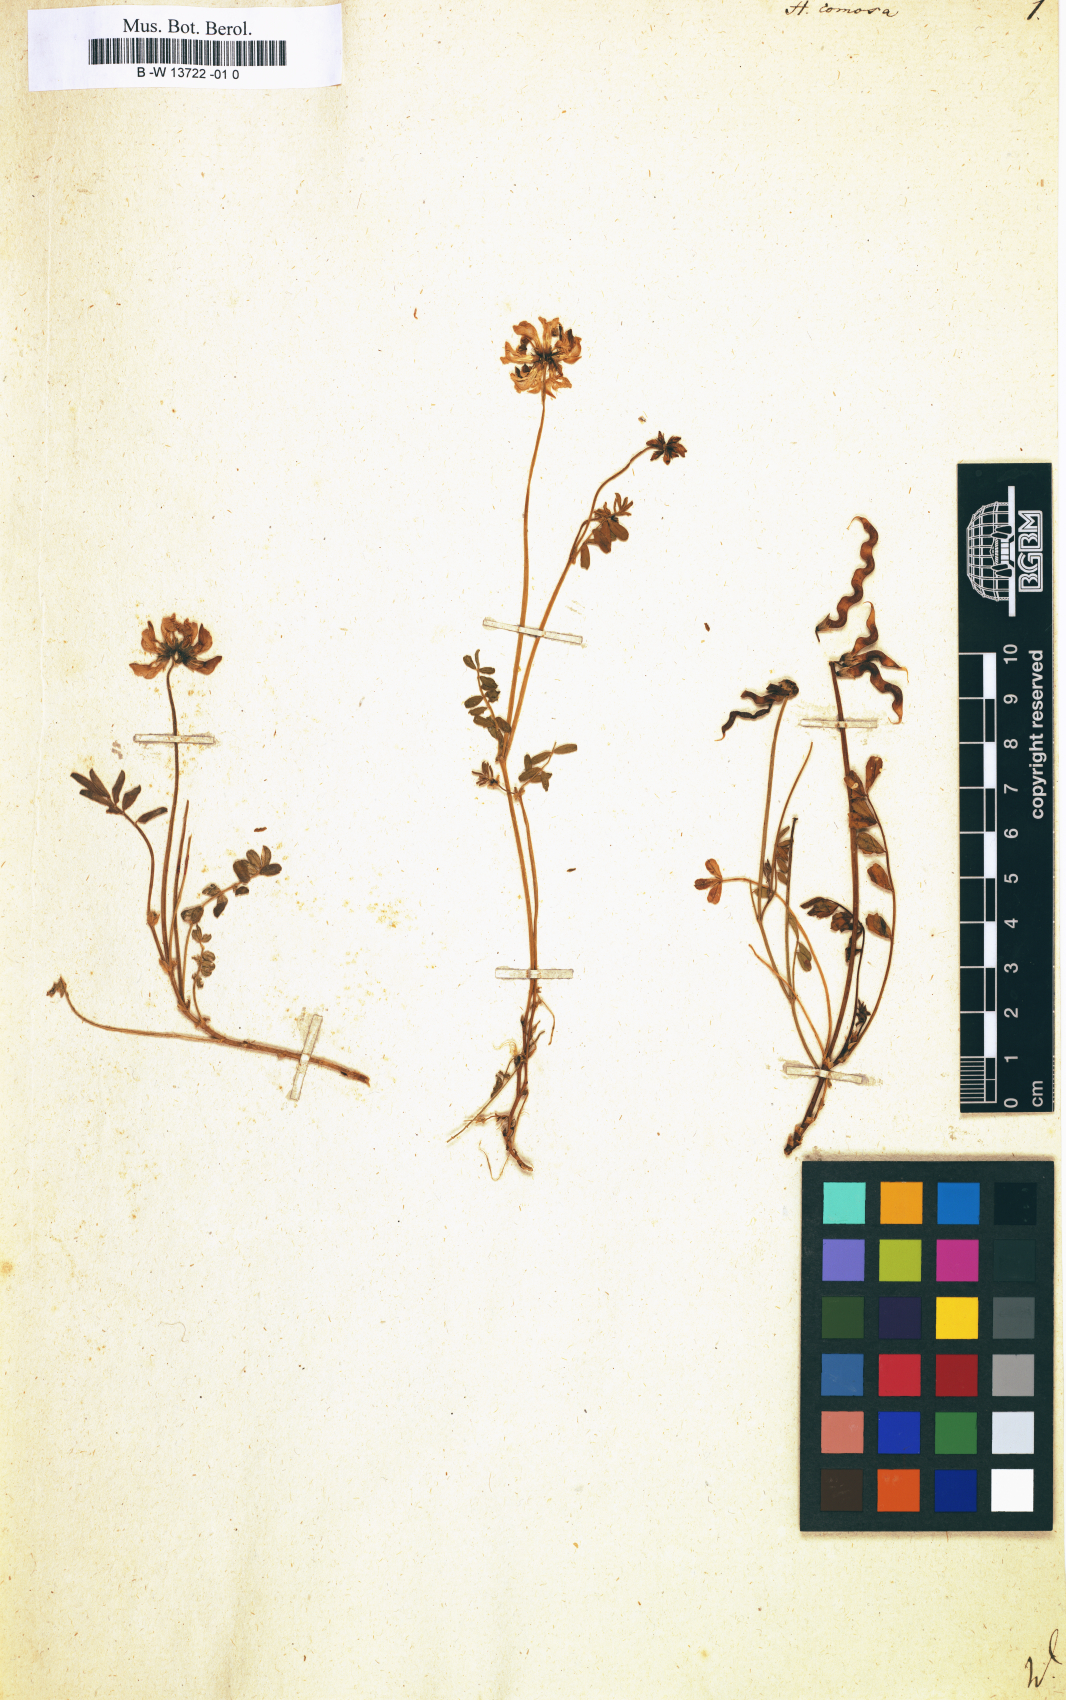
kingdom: Plantae
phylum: Tracheophyta
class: Magnoliopsida
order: Fabales
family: Fabaceae
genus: Hippocrepis
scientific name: Hippocrepis comosa
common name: Horseshoe vetch
